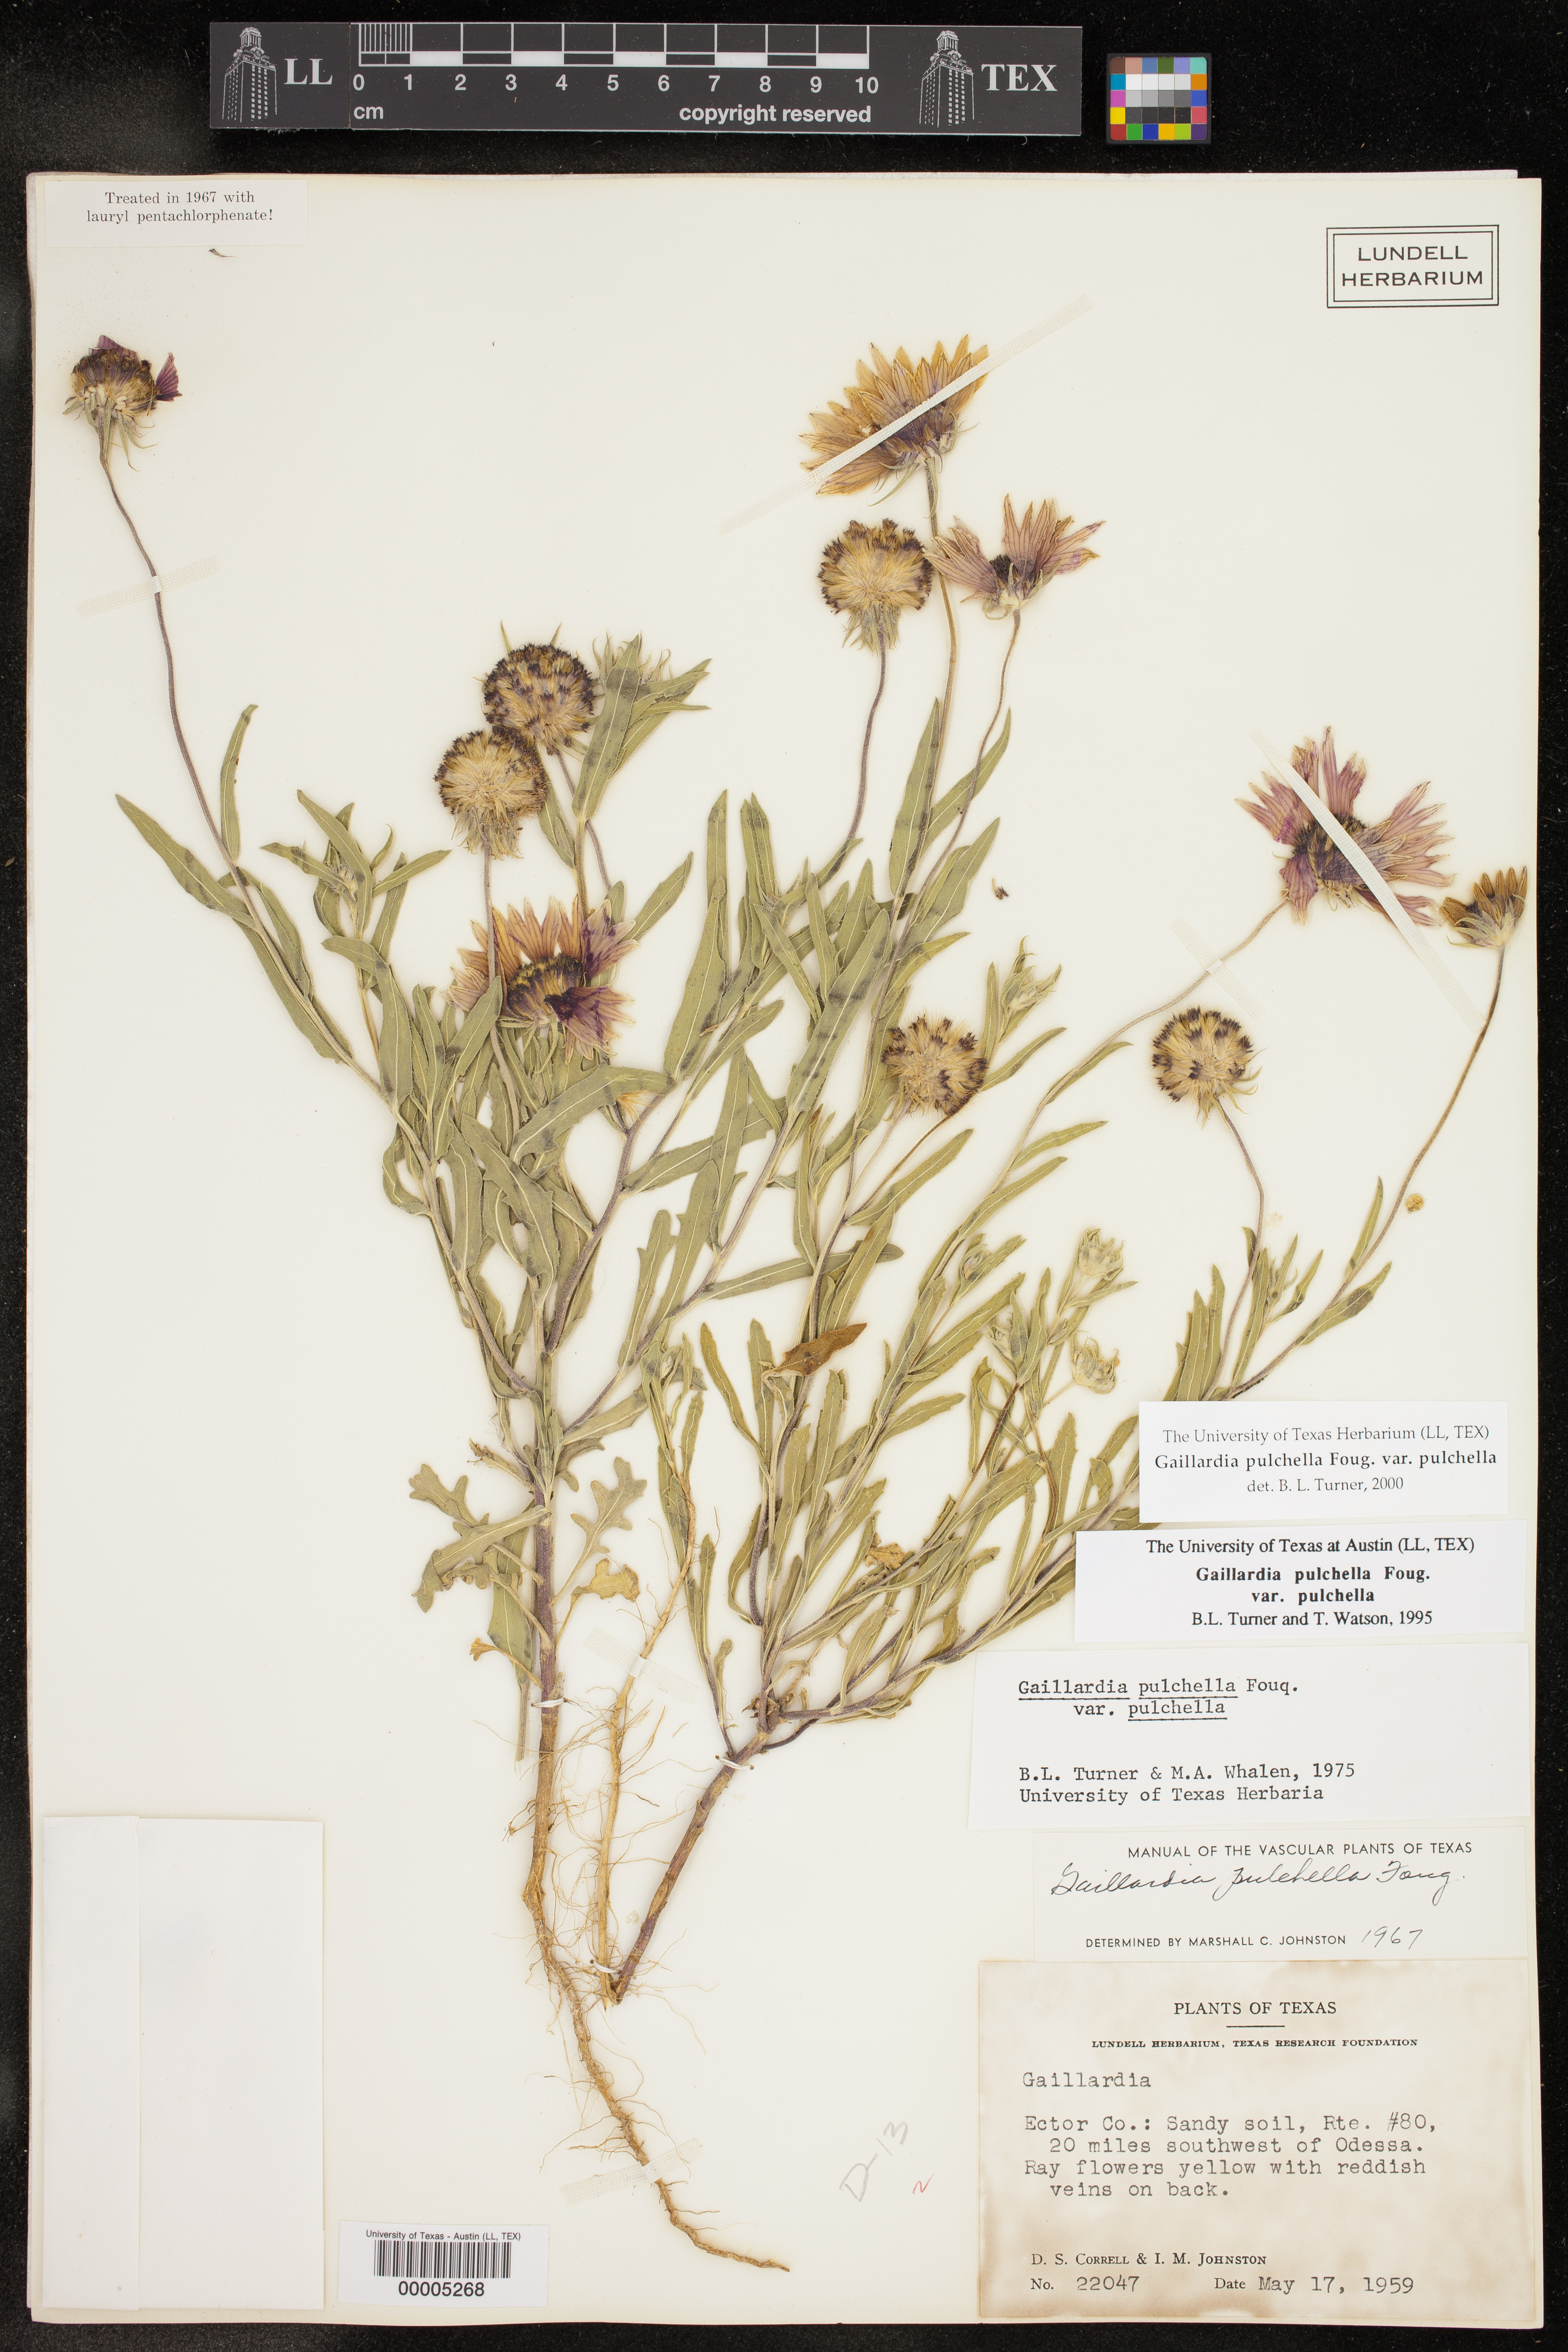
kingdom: Plantae
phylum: Tracheophyta
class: Magnoliopsida
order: Asterales
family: Asteraceae
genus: Gaillardia
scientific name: Gaillardia pulchella
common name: Firewheel
